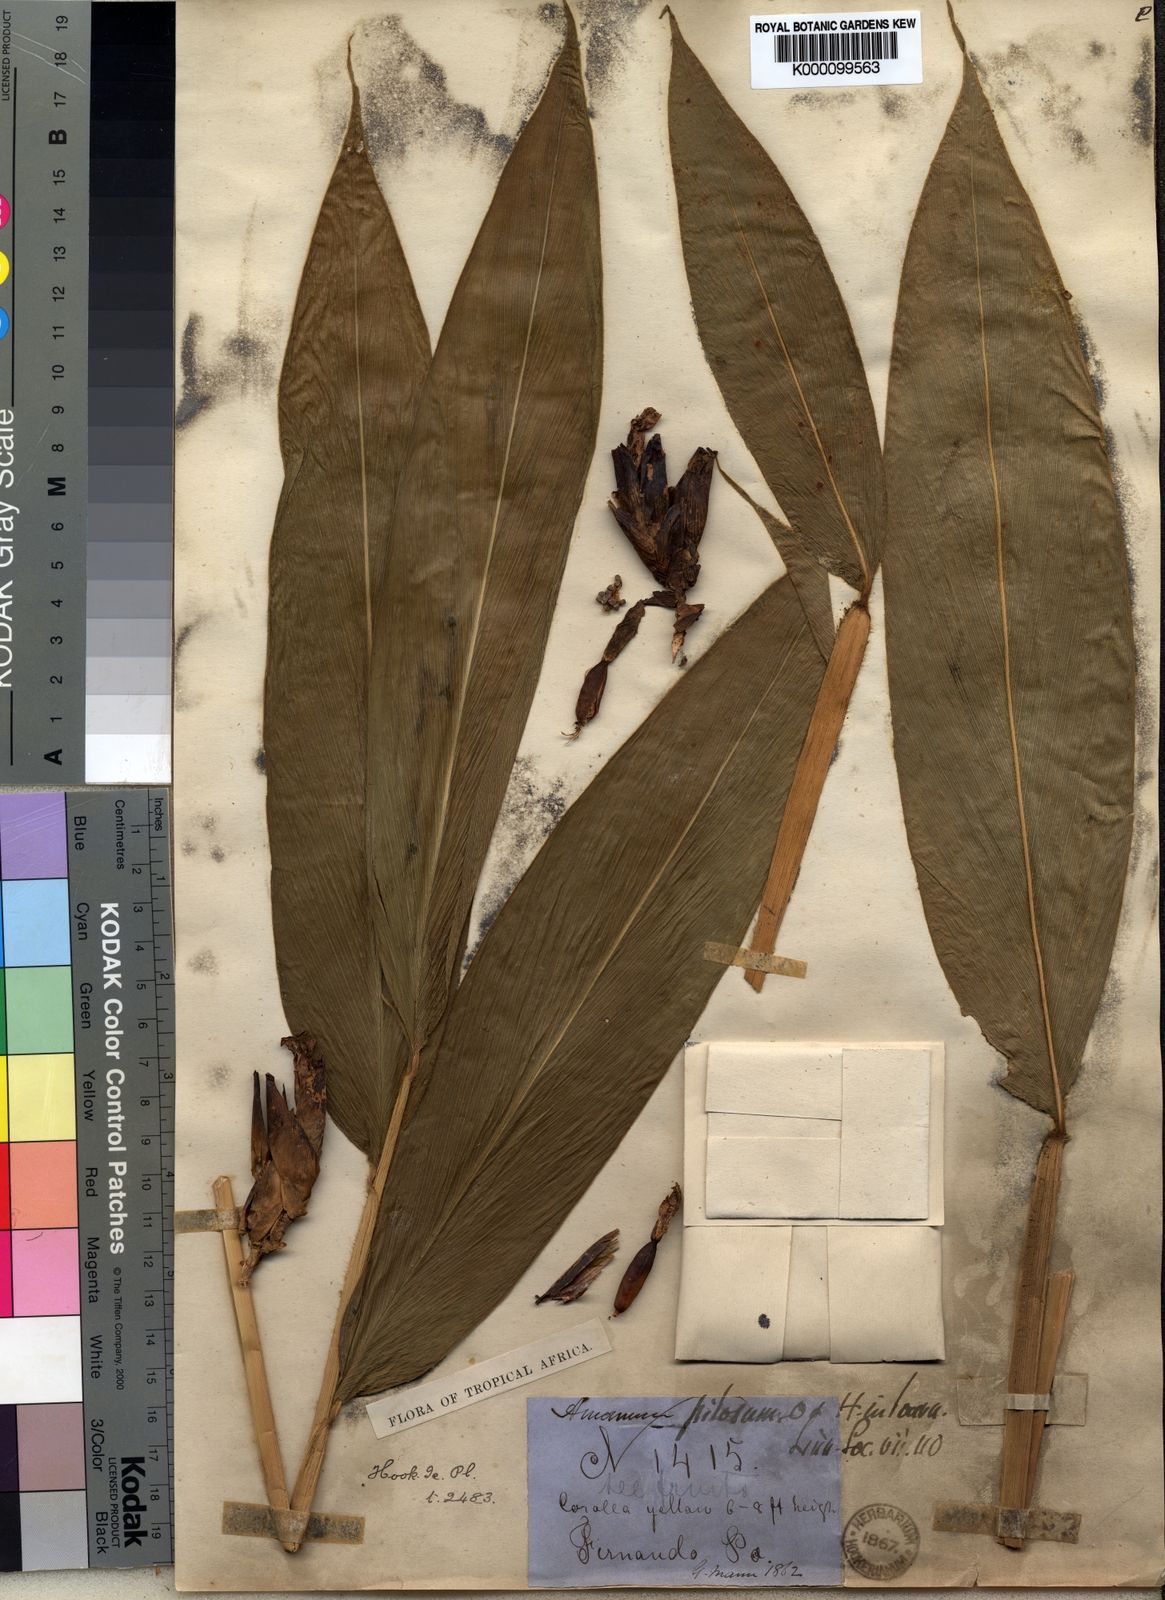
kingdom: Plantae
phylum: Tracheophyta
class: Liliopsida
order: Zingiberales
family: Zingiberaceae
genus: Aframomum
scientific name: Aframomum pilosum
